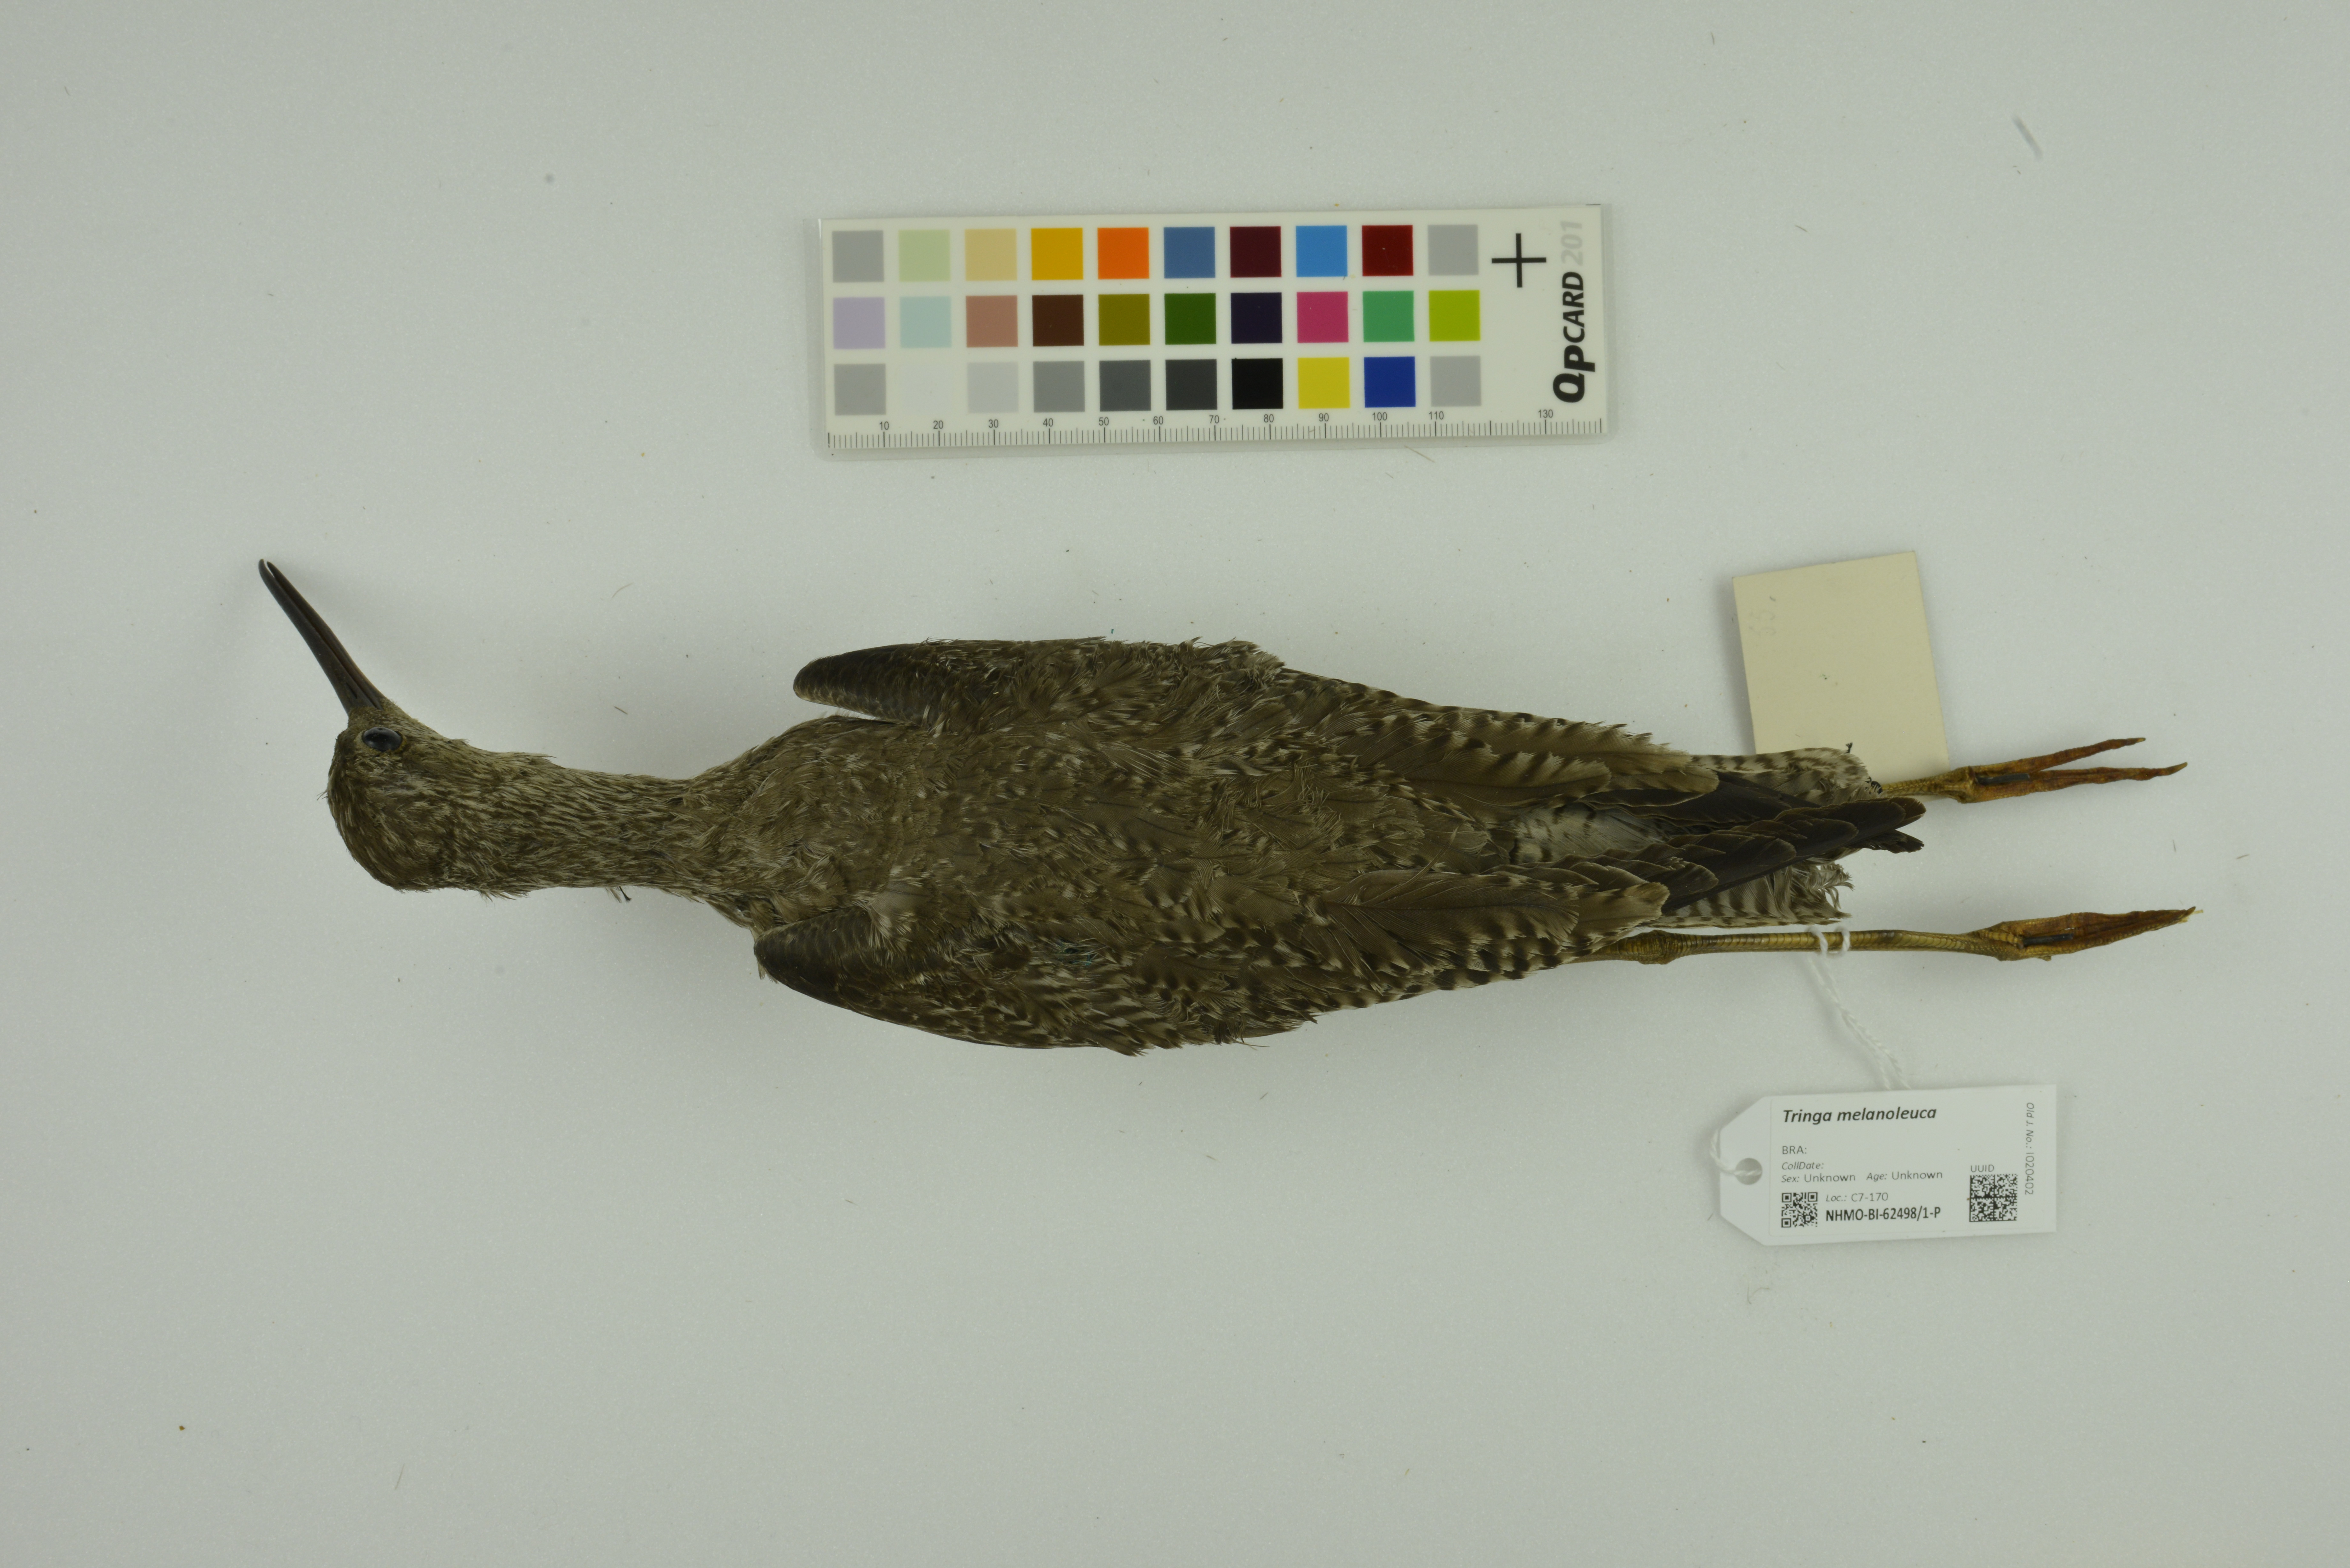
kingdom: Animalia
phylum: Chordata
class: Aves
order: Charadriiformes
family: Scolopacidae
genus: Tringa
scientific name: Tringa melanoleuca
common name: Greater yellowlegs
